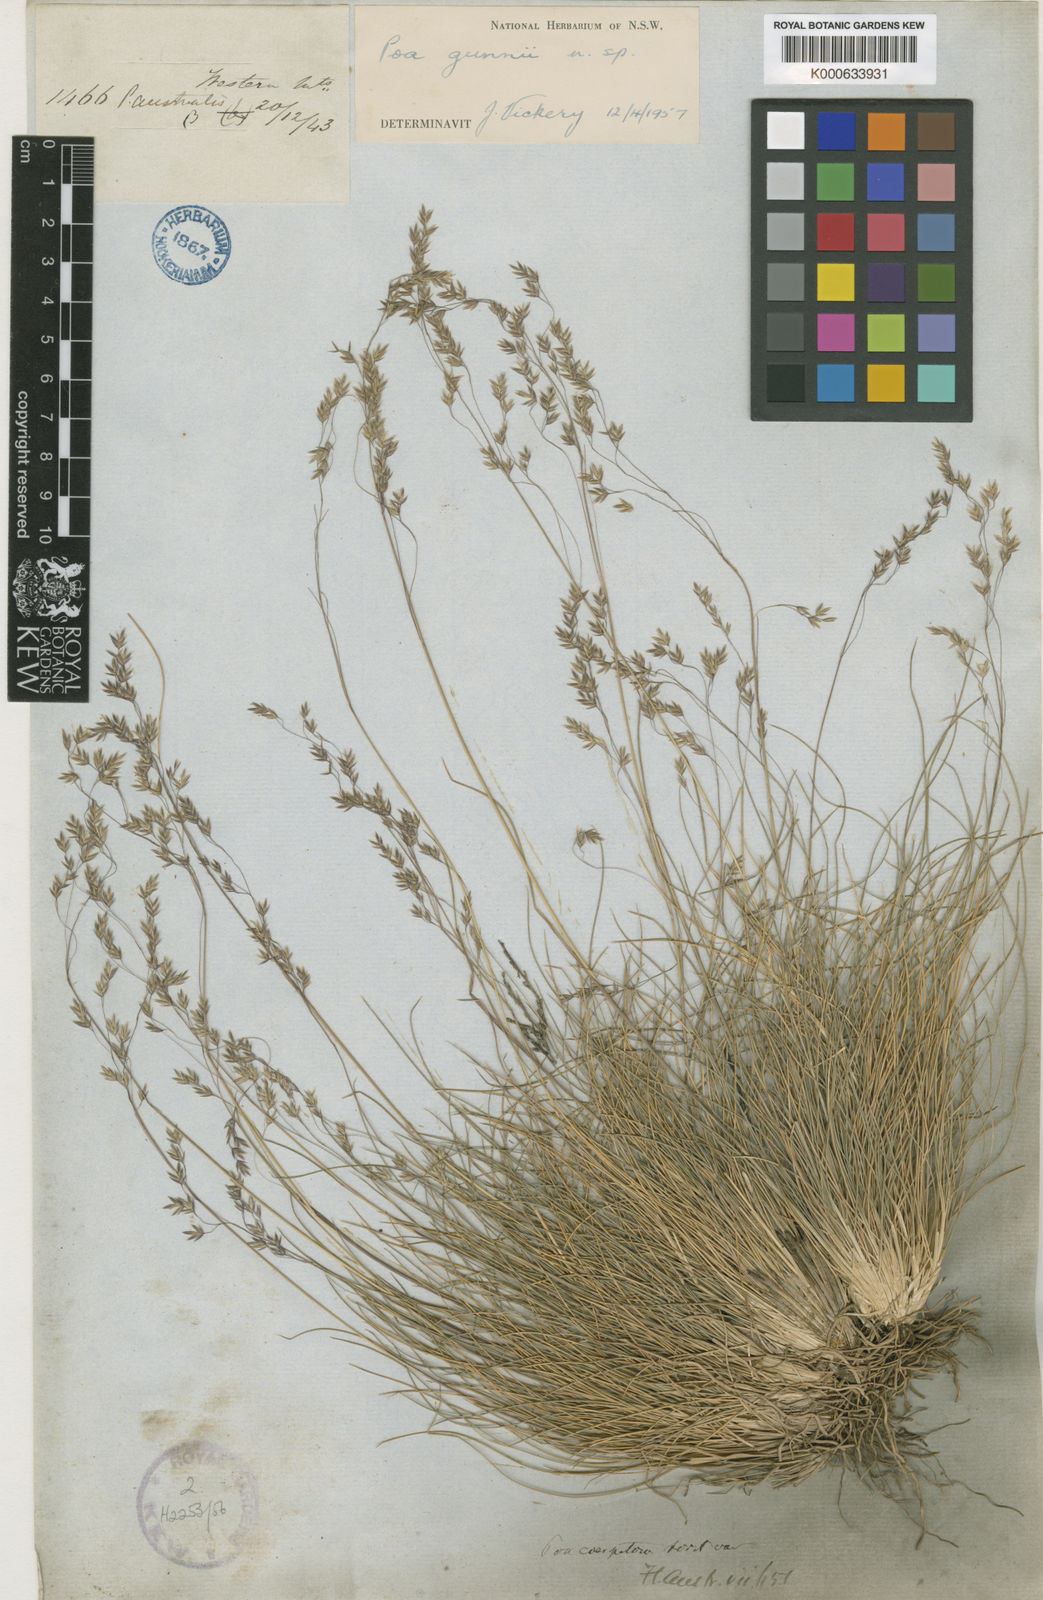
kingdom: Plantae
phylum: Tracheophyta
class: Liliopsida
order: Poales
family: Poaceae
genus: Poa
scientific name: Poa gunnii
